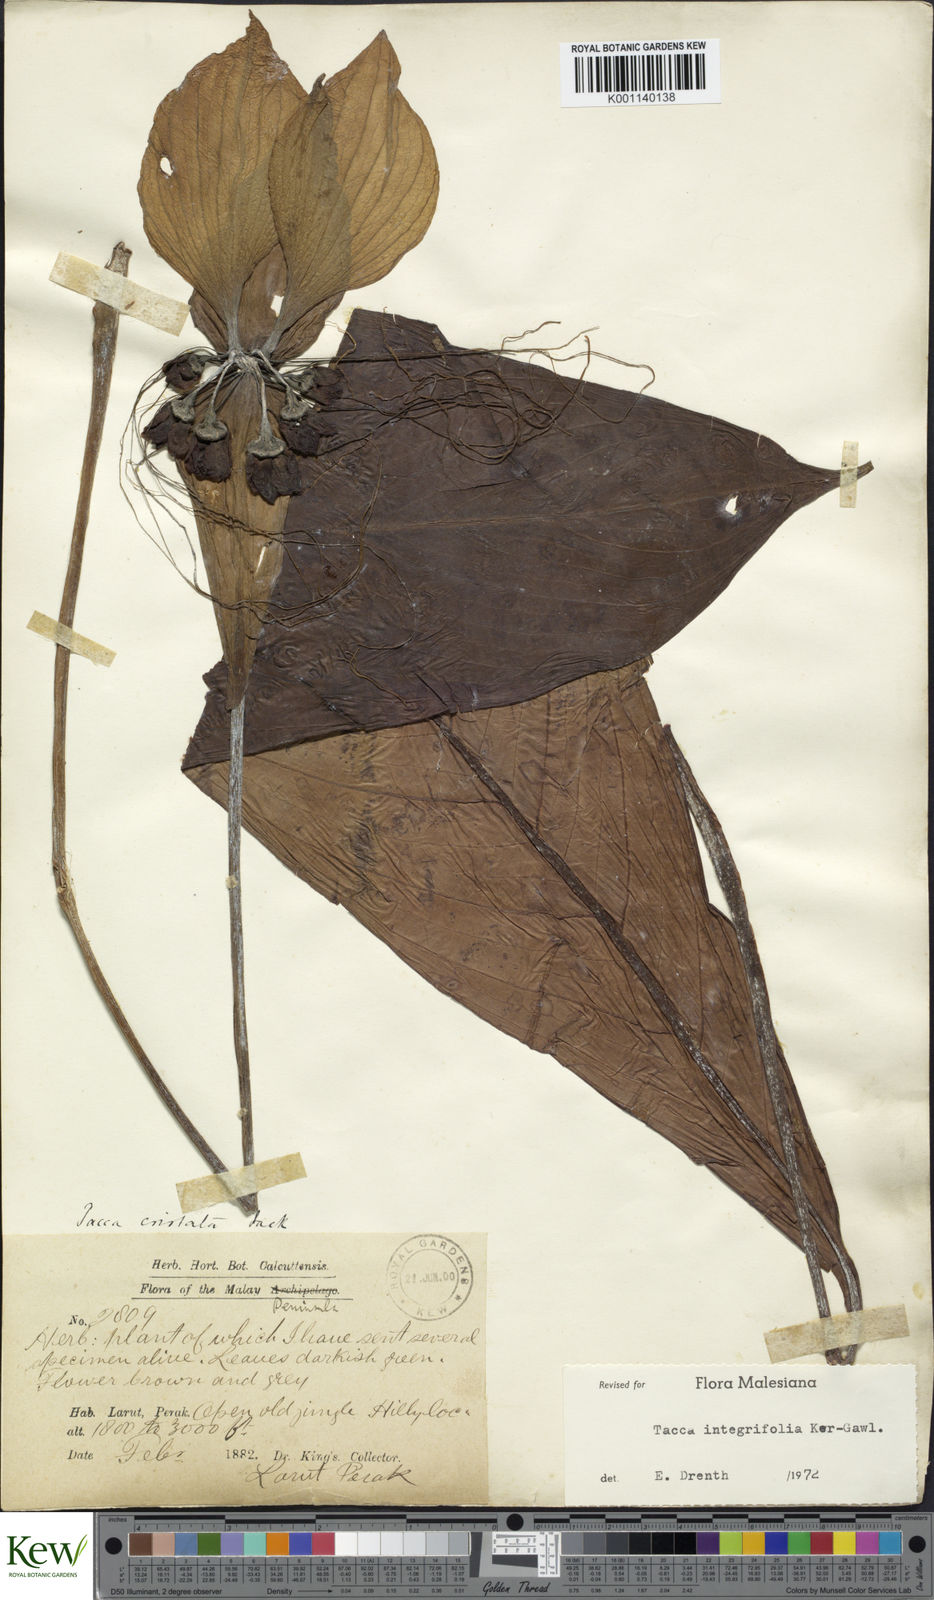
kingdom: Plantae
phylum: Tracheophyta
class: Liliopsida
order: Dioscoreales
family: Dioscoreaceae
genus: Tacca
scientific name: Tacca integrifolia
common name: Batplant
